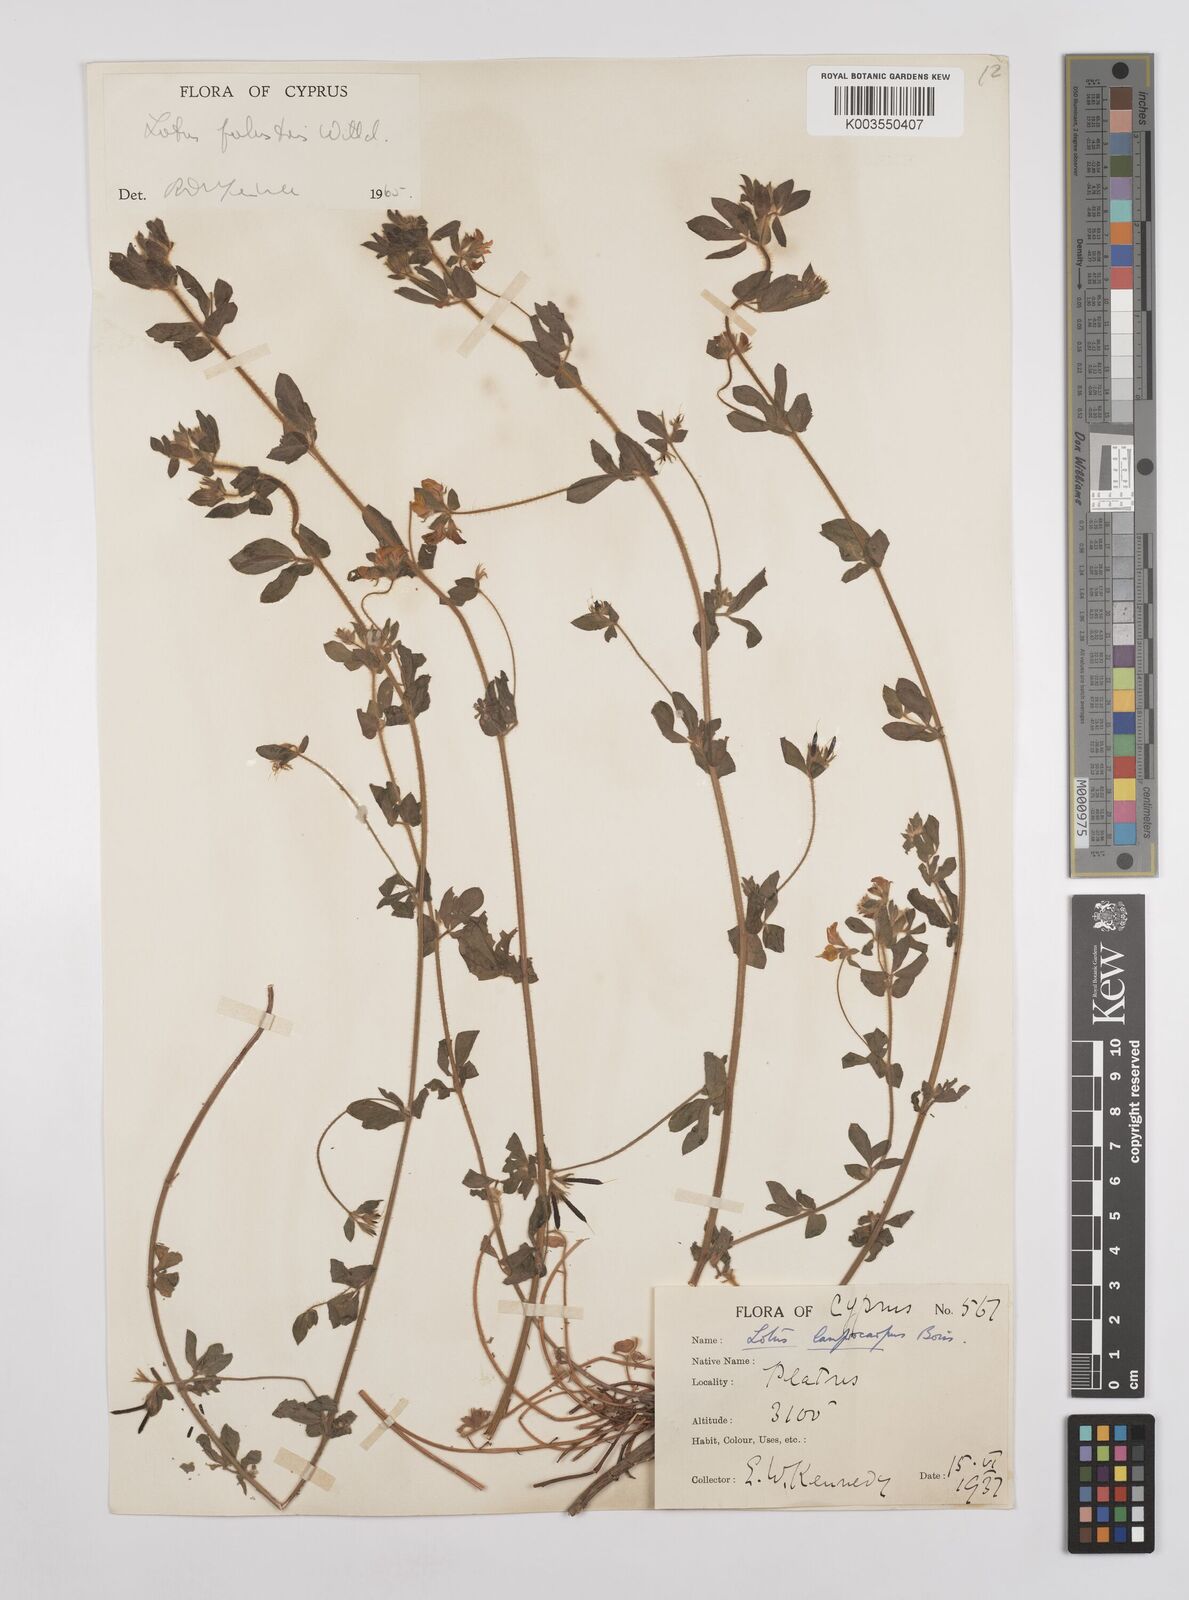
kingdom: Plantae
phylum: Tracheophyta
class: Magnoliopsida
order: Fabales
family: Fabaceae
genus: Lotus
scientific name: Lotus palustris
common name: Large birds-foot trefoil
